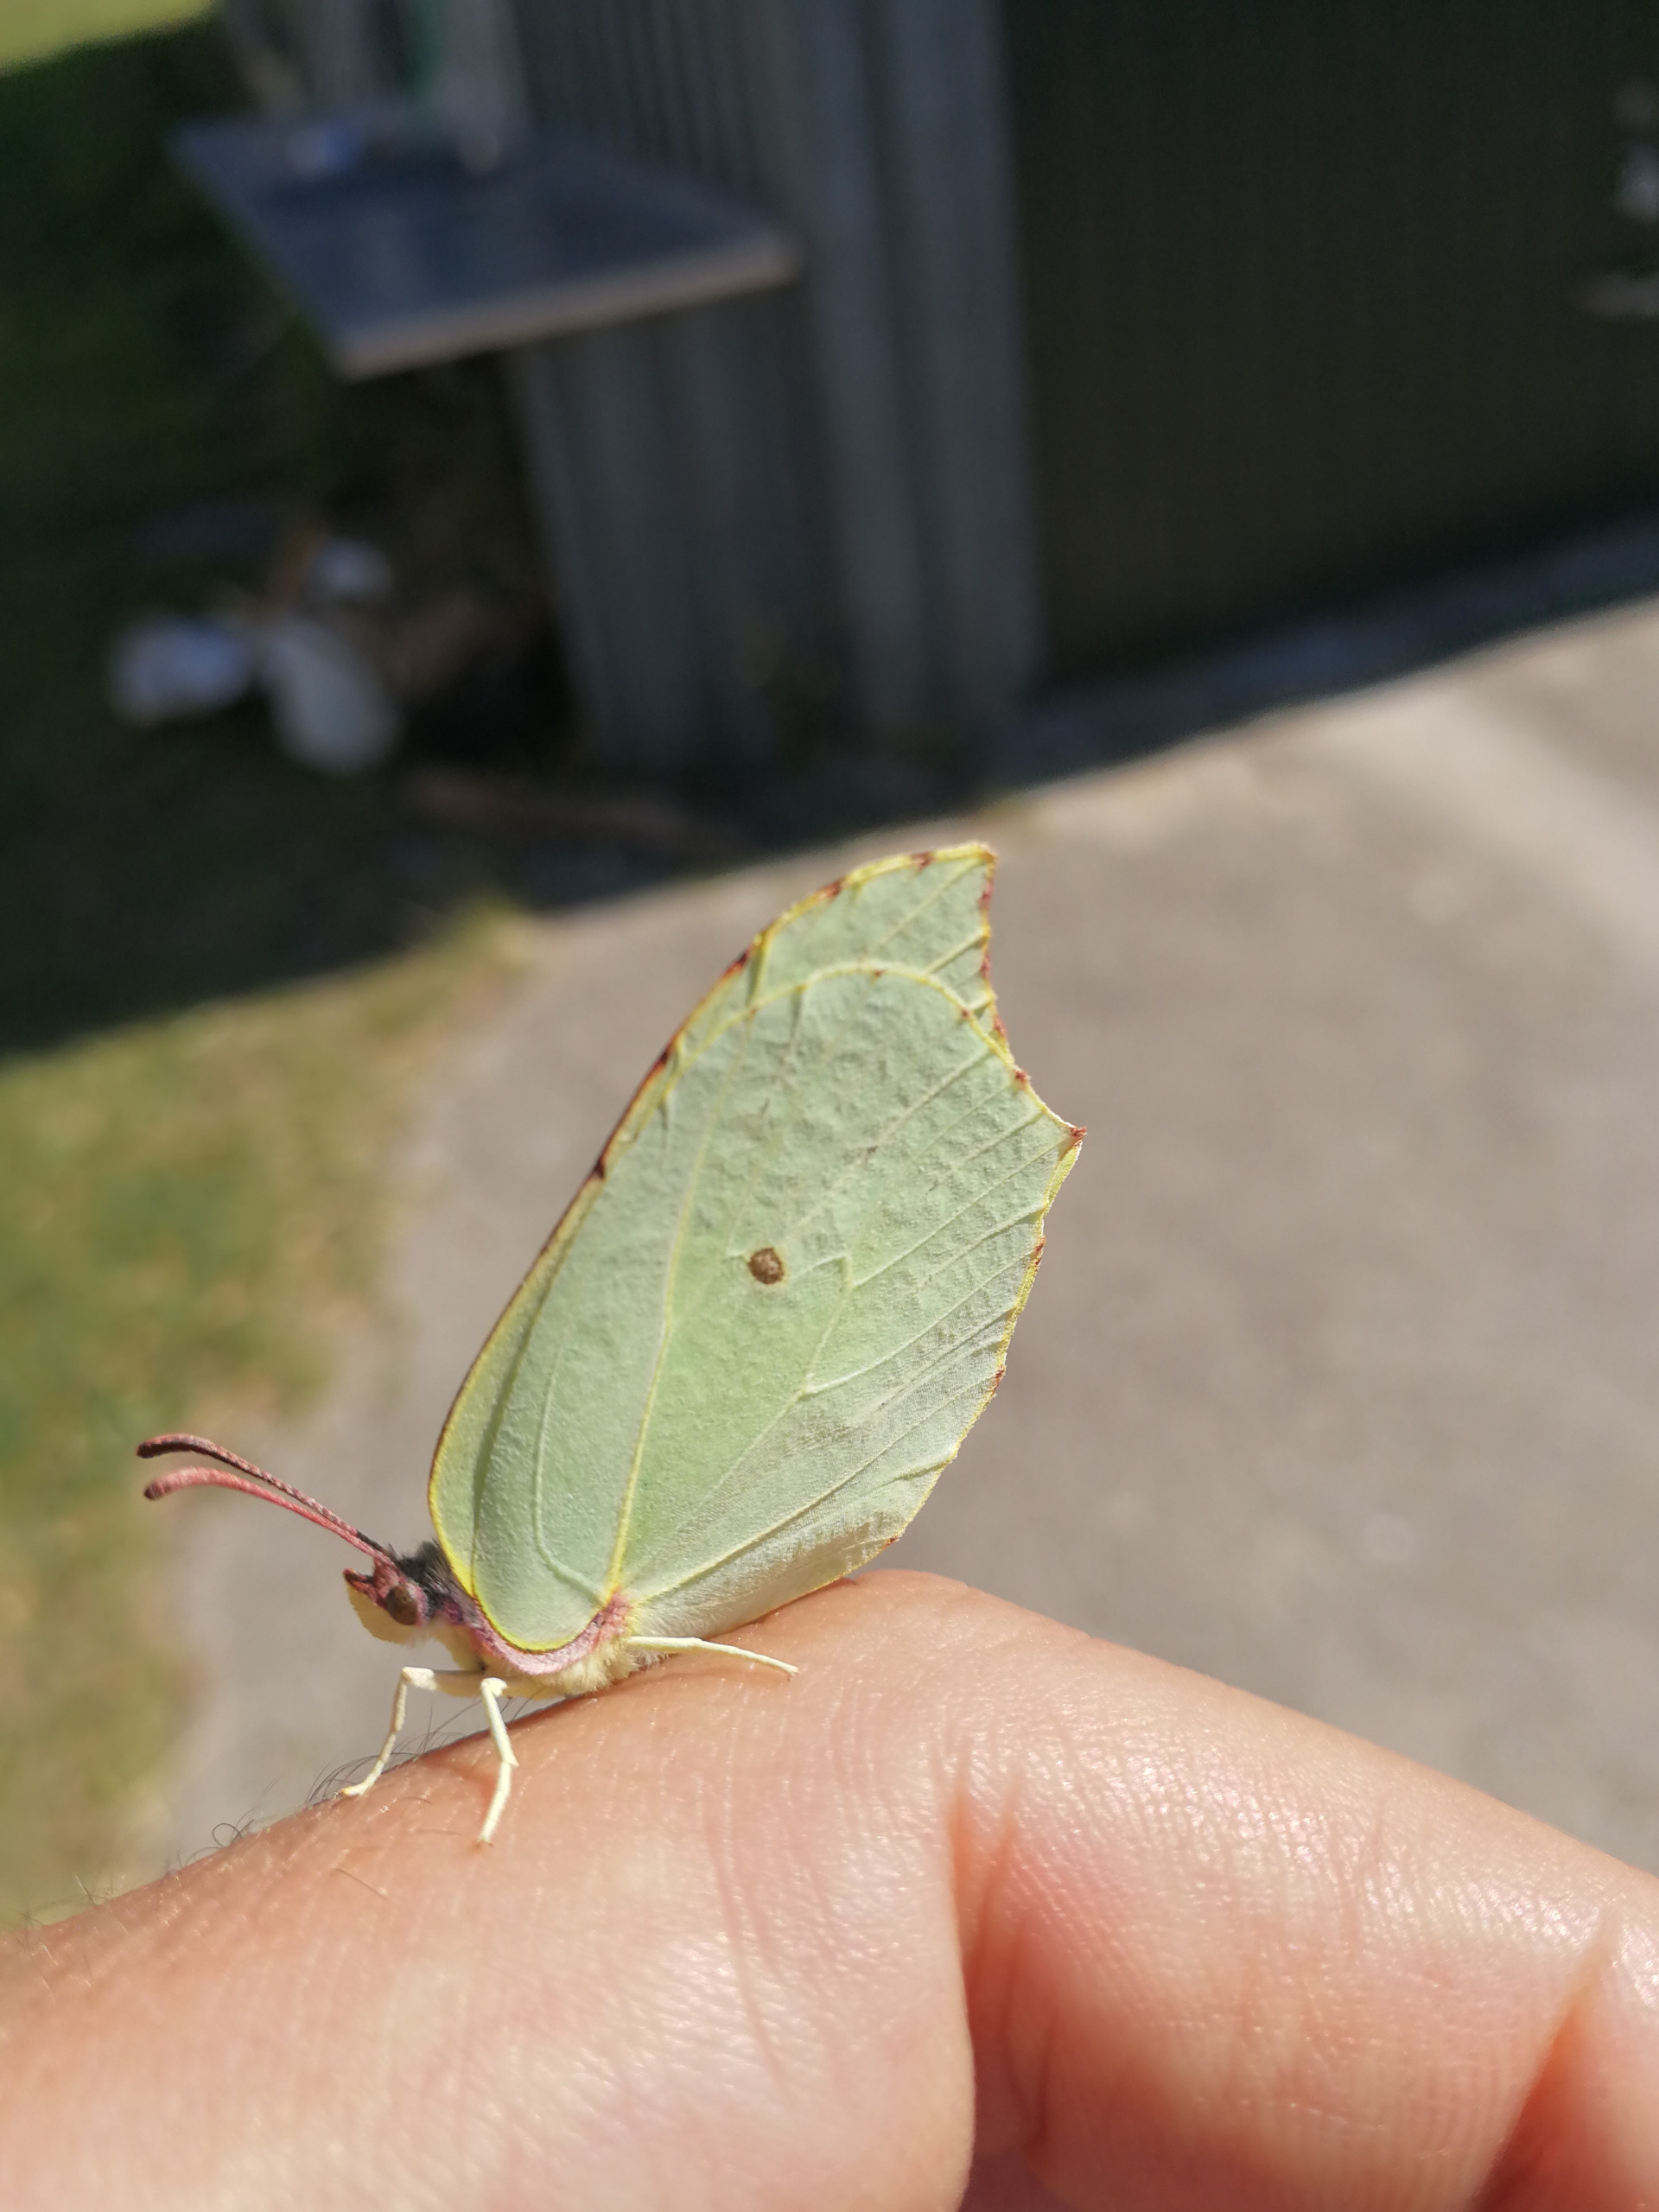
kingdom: Animalia
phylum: Arthropoda
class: Insecta
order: Lepidoptera
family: Pieridae
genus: Gonepteryx
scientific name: Gonepteryx rhamni
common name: Citronsommerfugl
